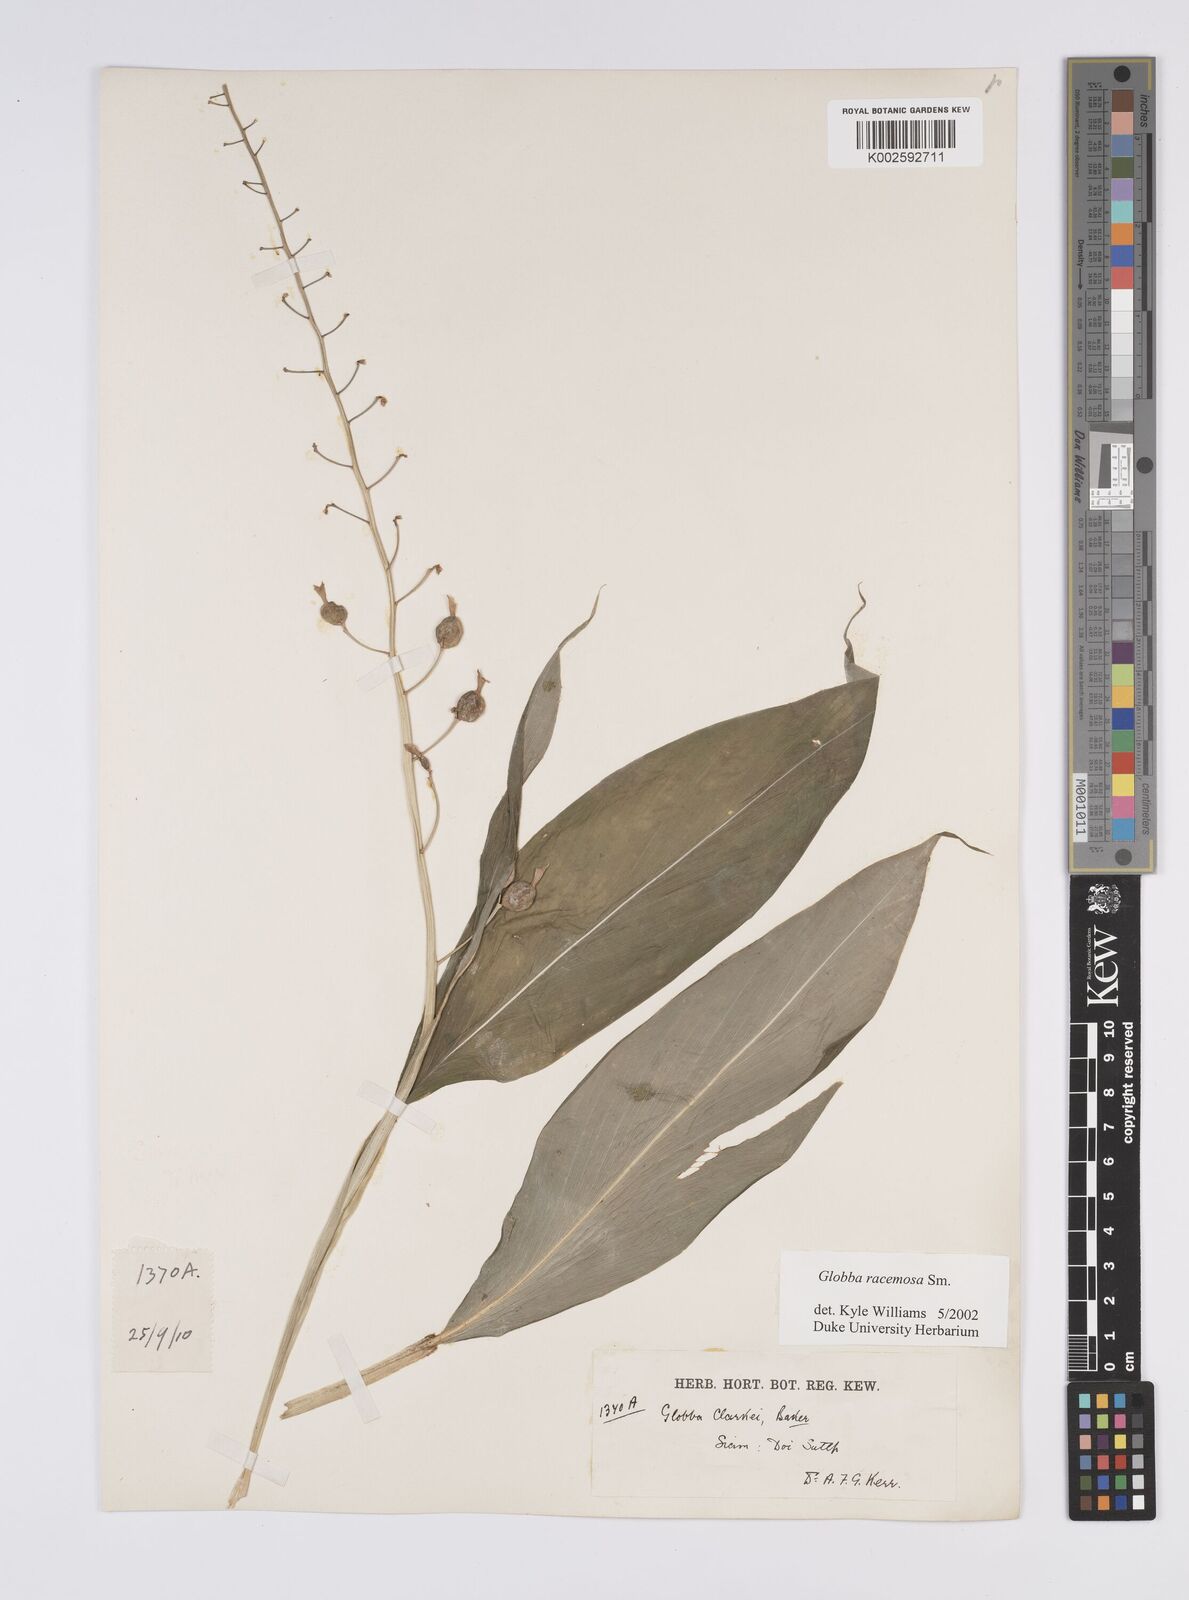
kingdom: Plantae
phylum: Tracheophyta
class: Liliopsida
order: Zingiberales
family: Zingiberaceae
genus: Globba
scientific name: Globba racemosa
